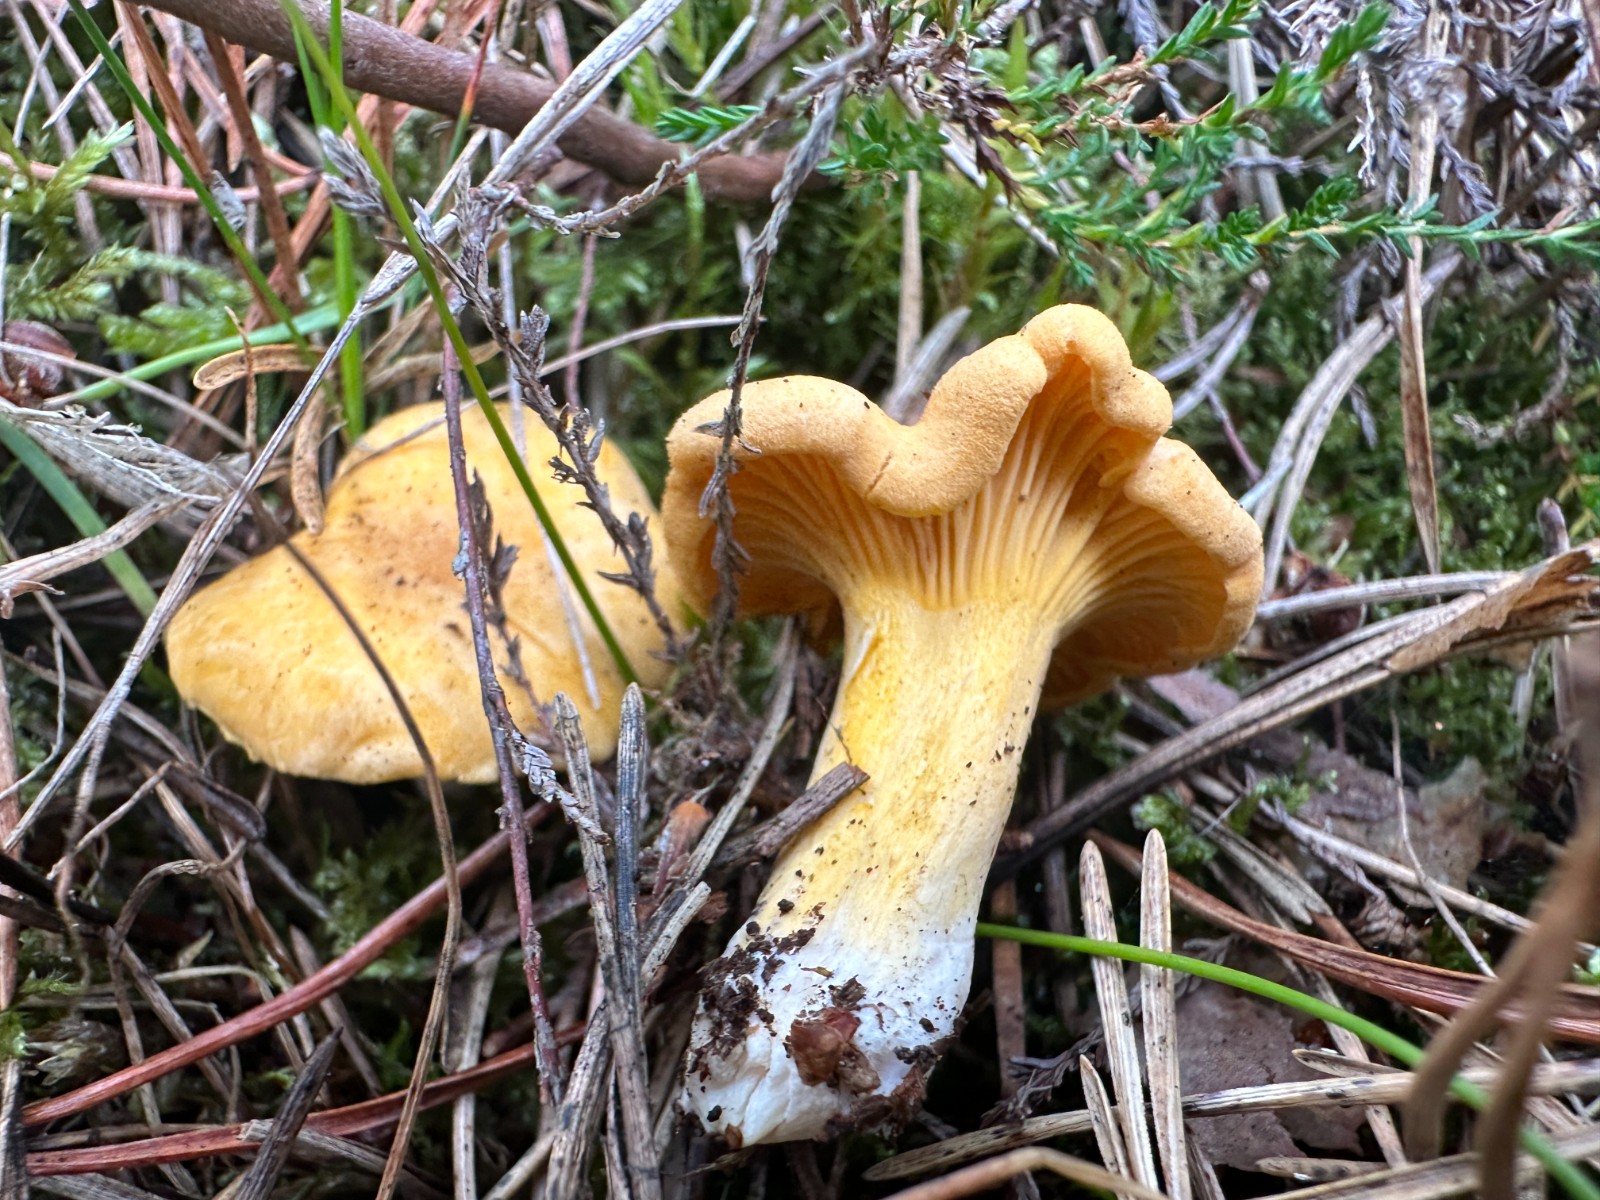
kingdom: Fungi
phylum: Basidiomycota
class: Agaricomycetes
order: Cantharellales
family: Hydnaceae
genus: Cantharellus
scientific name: Cantharellus cibarius
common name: almindelig kantarel
